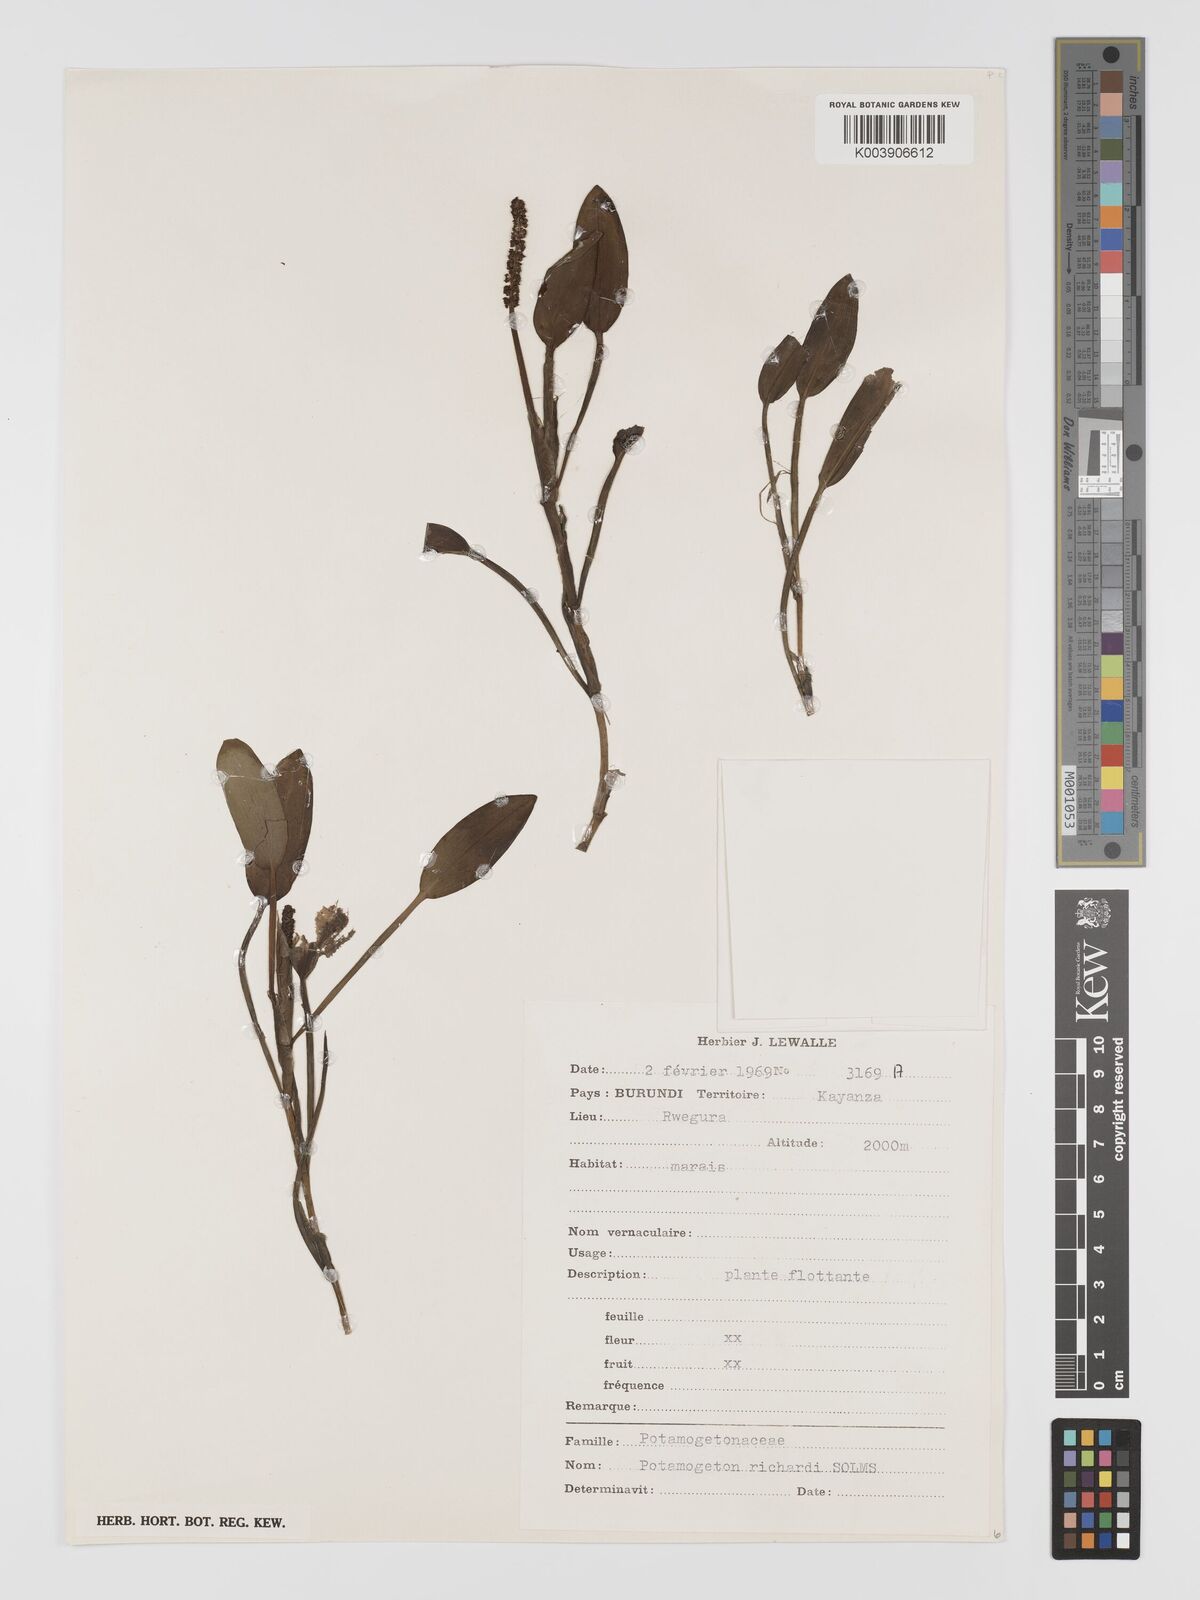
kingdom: Plantae
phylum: Tracheophyta
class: Liliopsida
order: Alismatales
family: Potamogetonaceae
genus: Potamogeton
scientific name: Potamogeton nodosus
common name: Loddon pondweed
